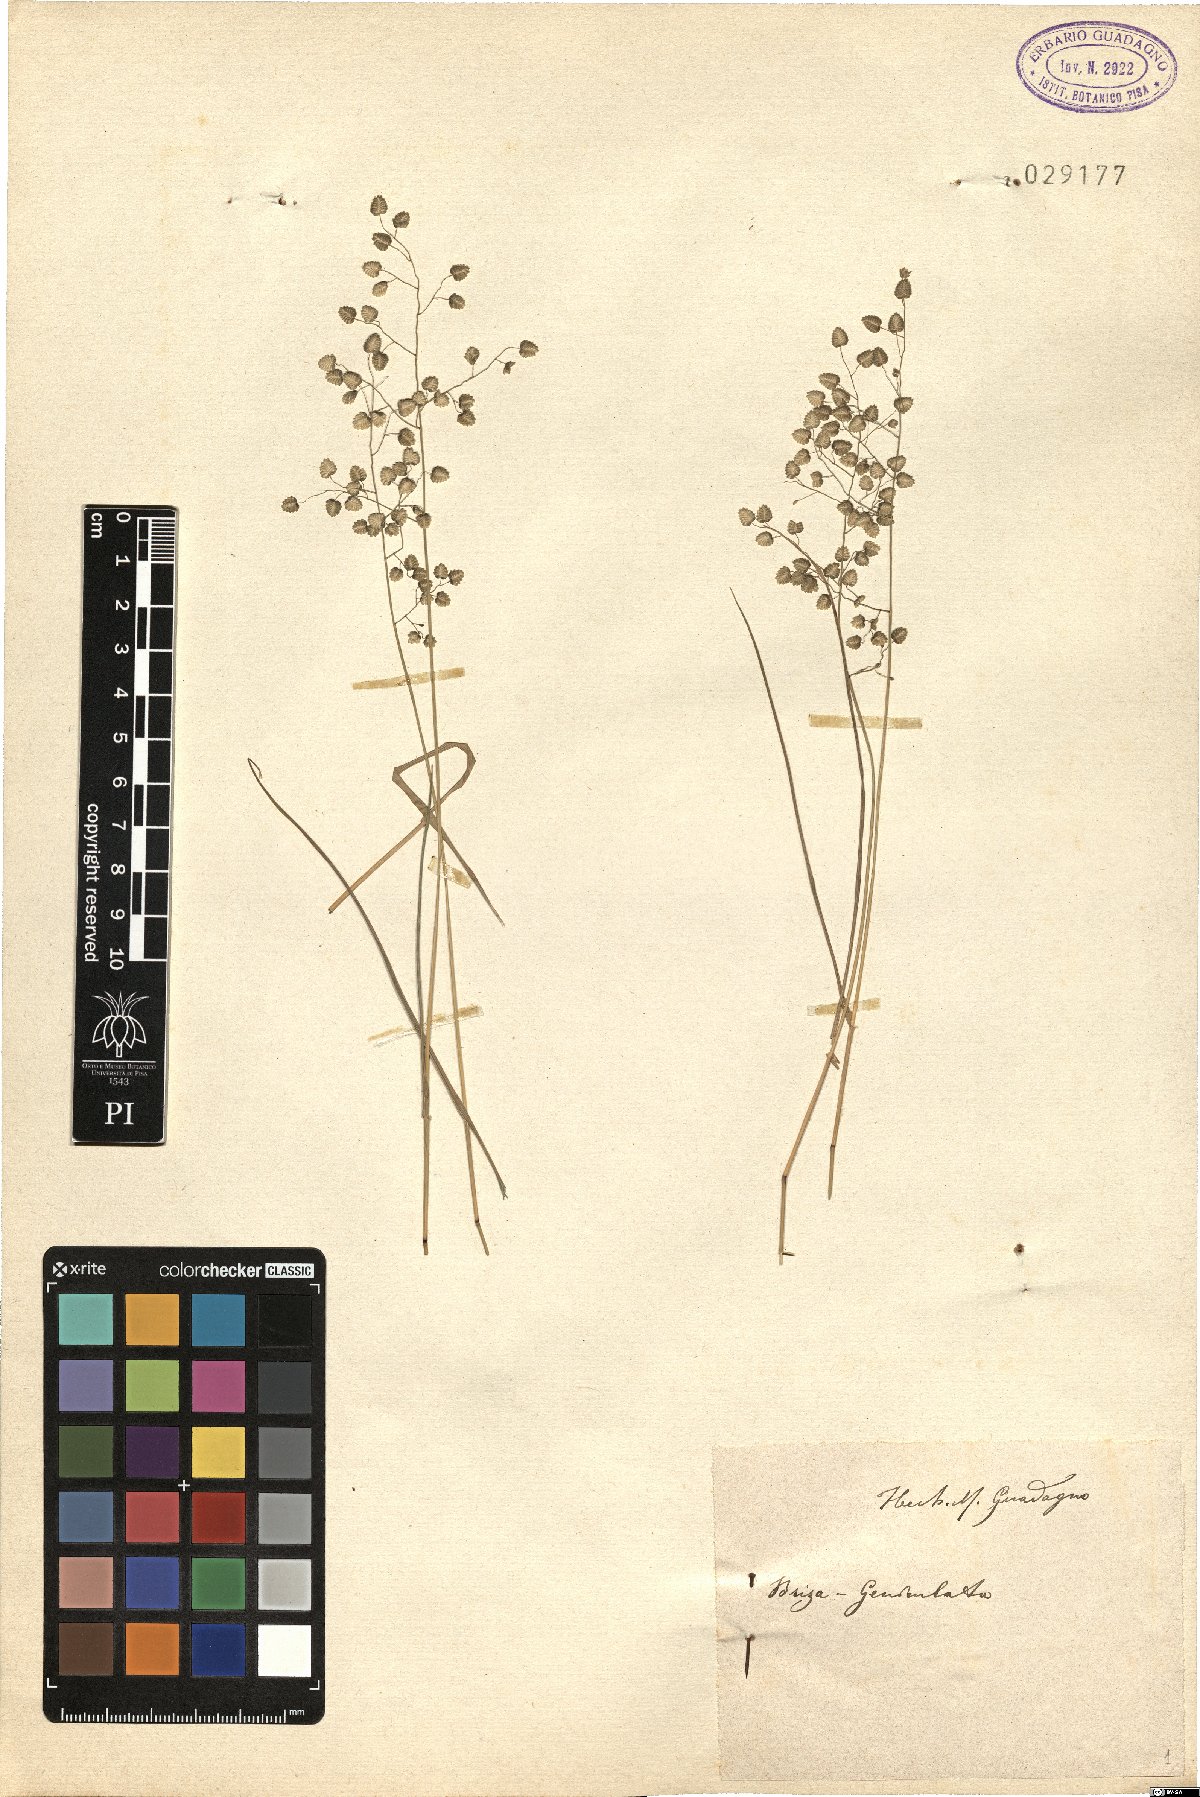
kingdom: Plantae
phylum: Tracheophyta
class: Liliopsida
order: Poales
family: Poaceae
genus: Eragrostis
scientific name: Eragrostis obtusa
